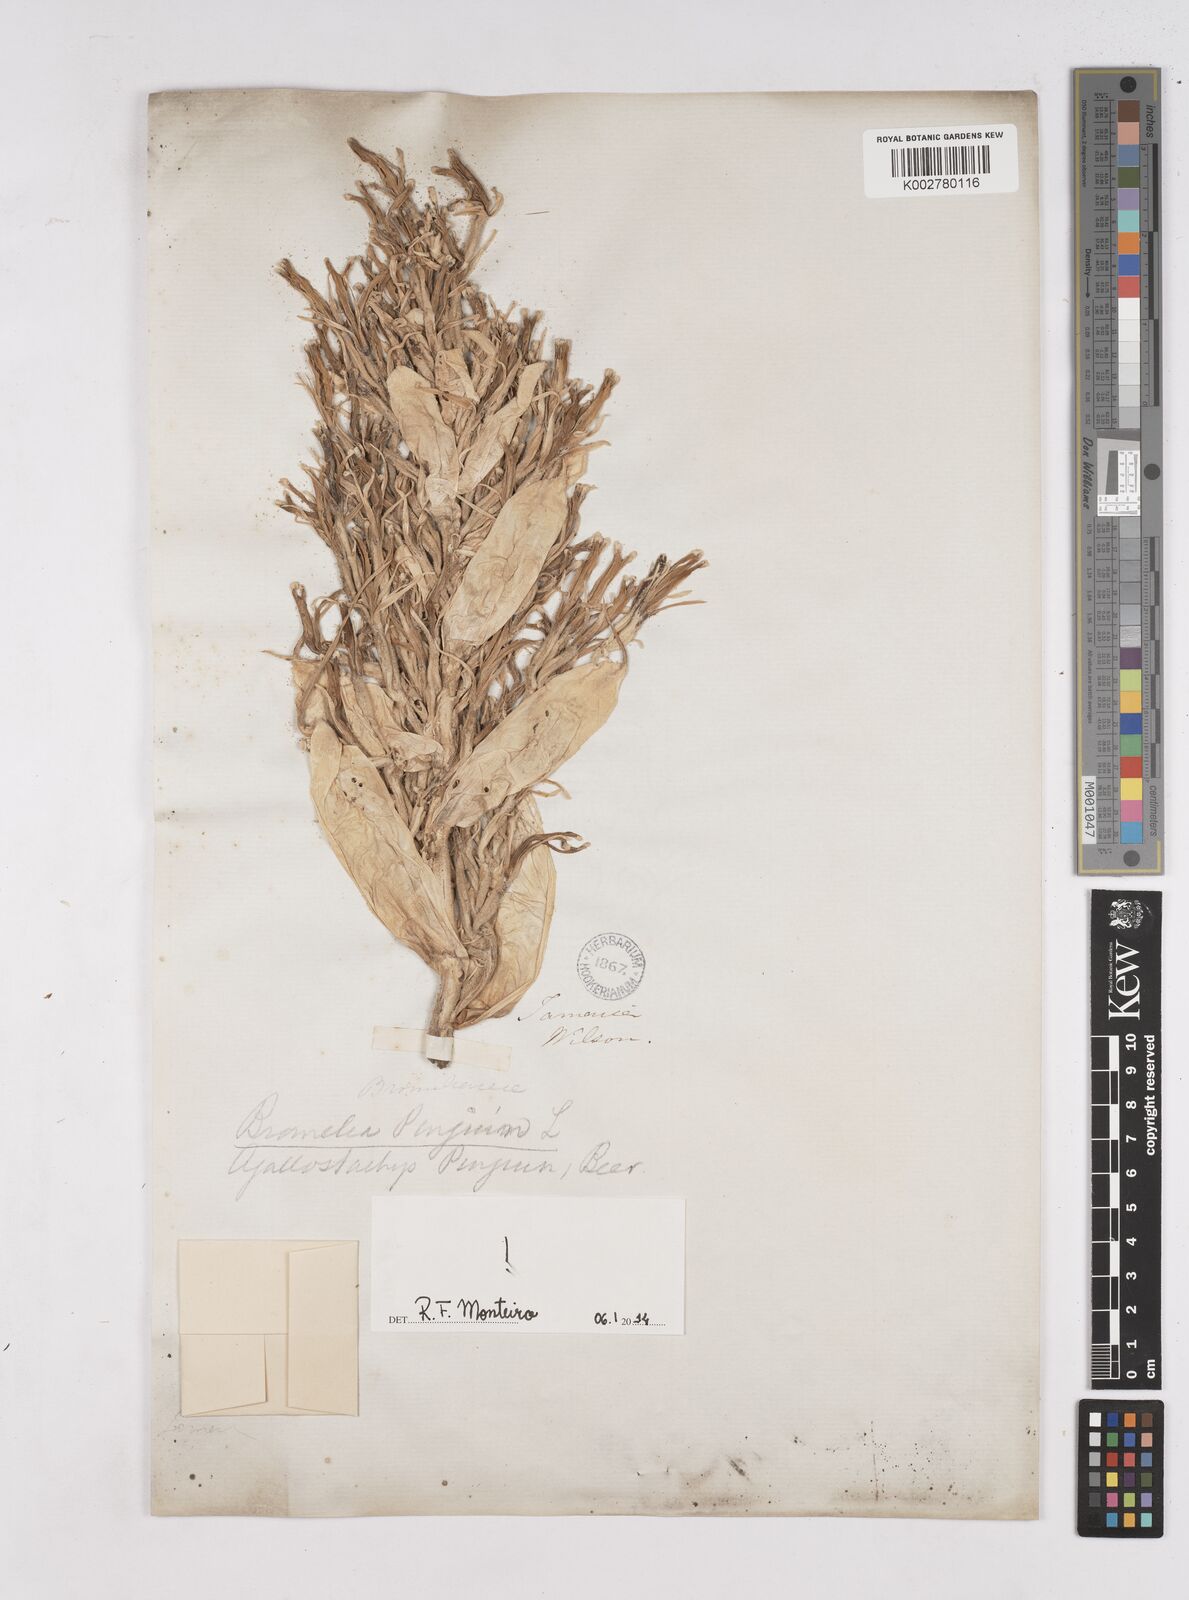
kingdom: Plantae
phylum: Tracheophyta
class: Liliopsida
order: Poales
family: Bromeliaceae
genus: Bromelia
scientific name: Bromelia pinguin
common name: Pinguin
